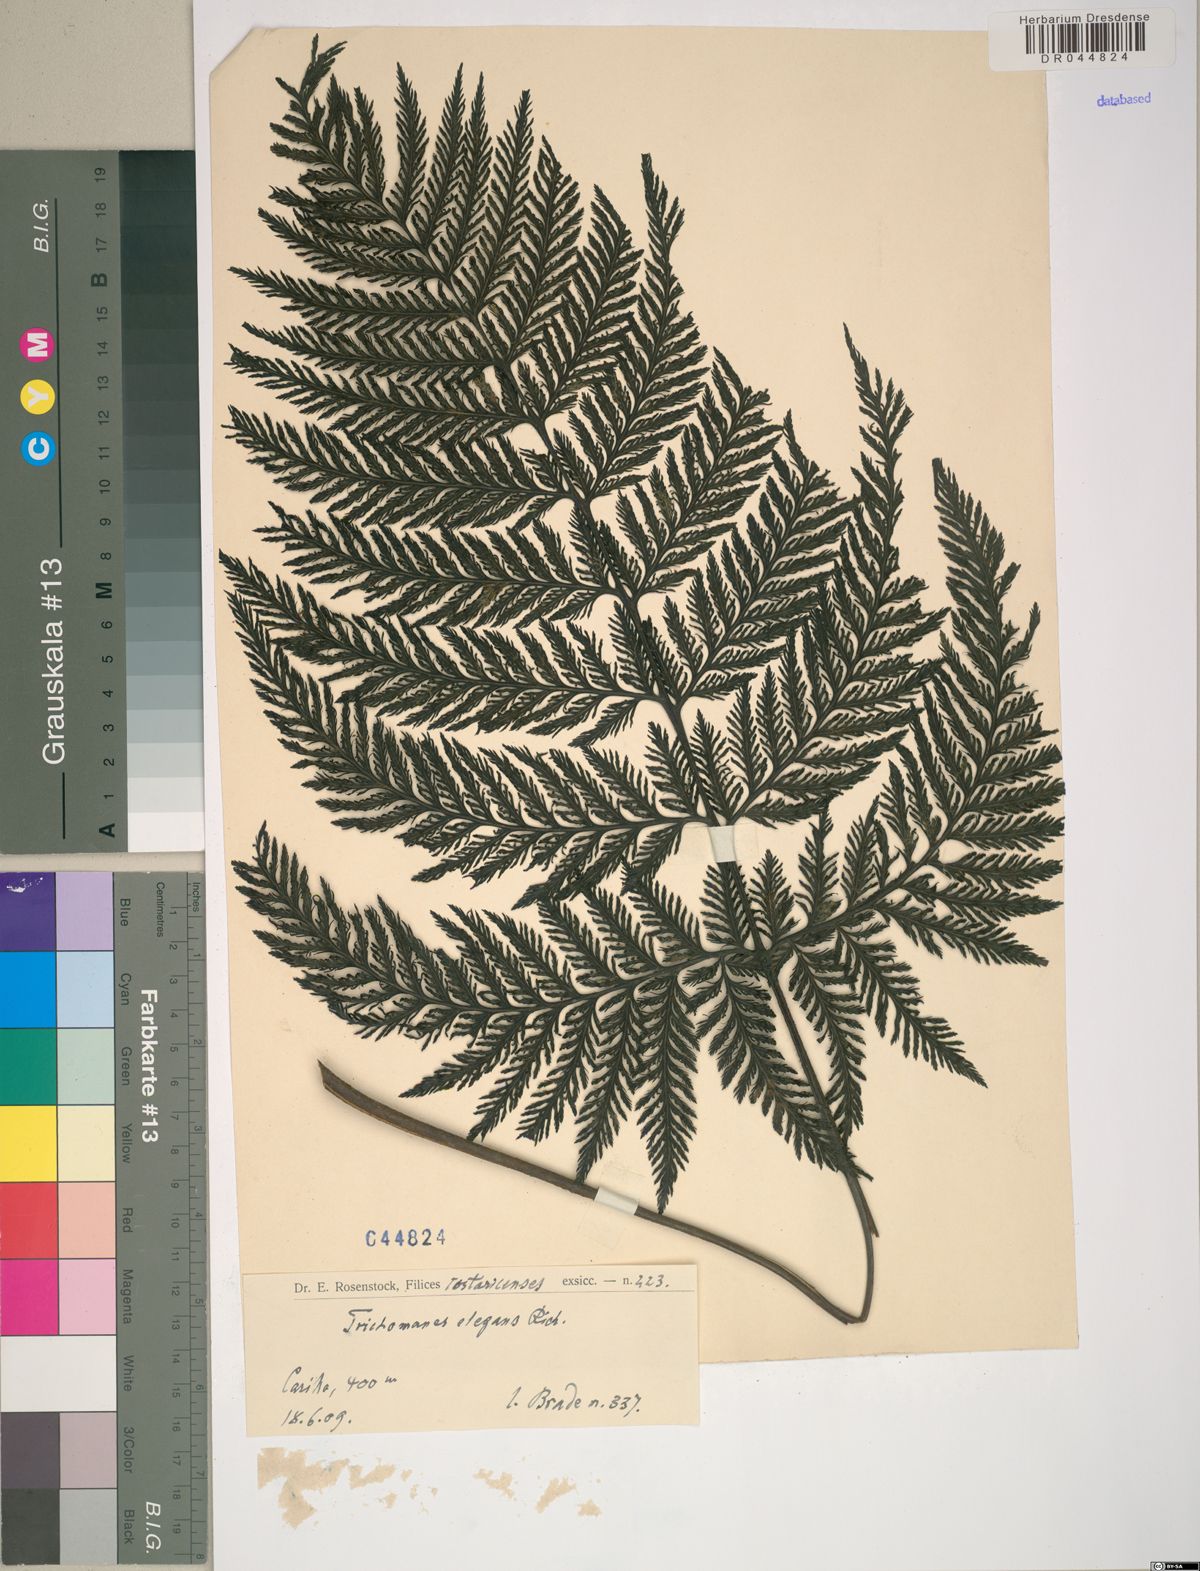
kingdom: Plantae
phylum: Tracheophyta
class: Polypodiopsida
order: Hymenophyllales
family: Hymenophyllaceae
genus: Trichomanes
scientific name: Trichomanes elegans
